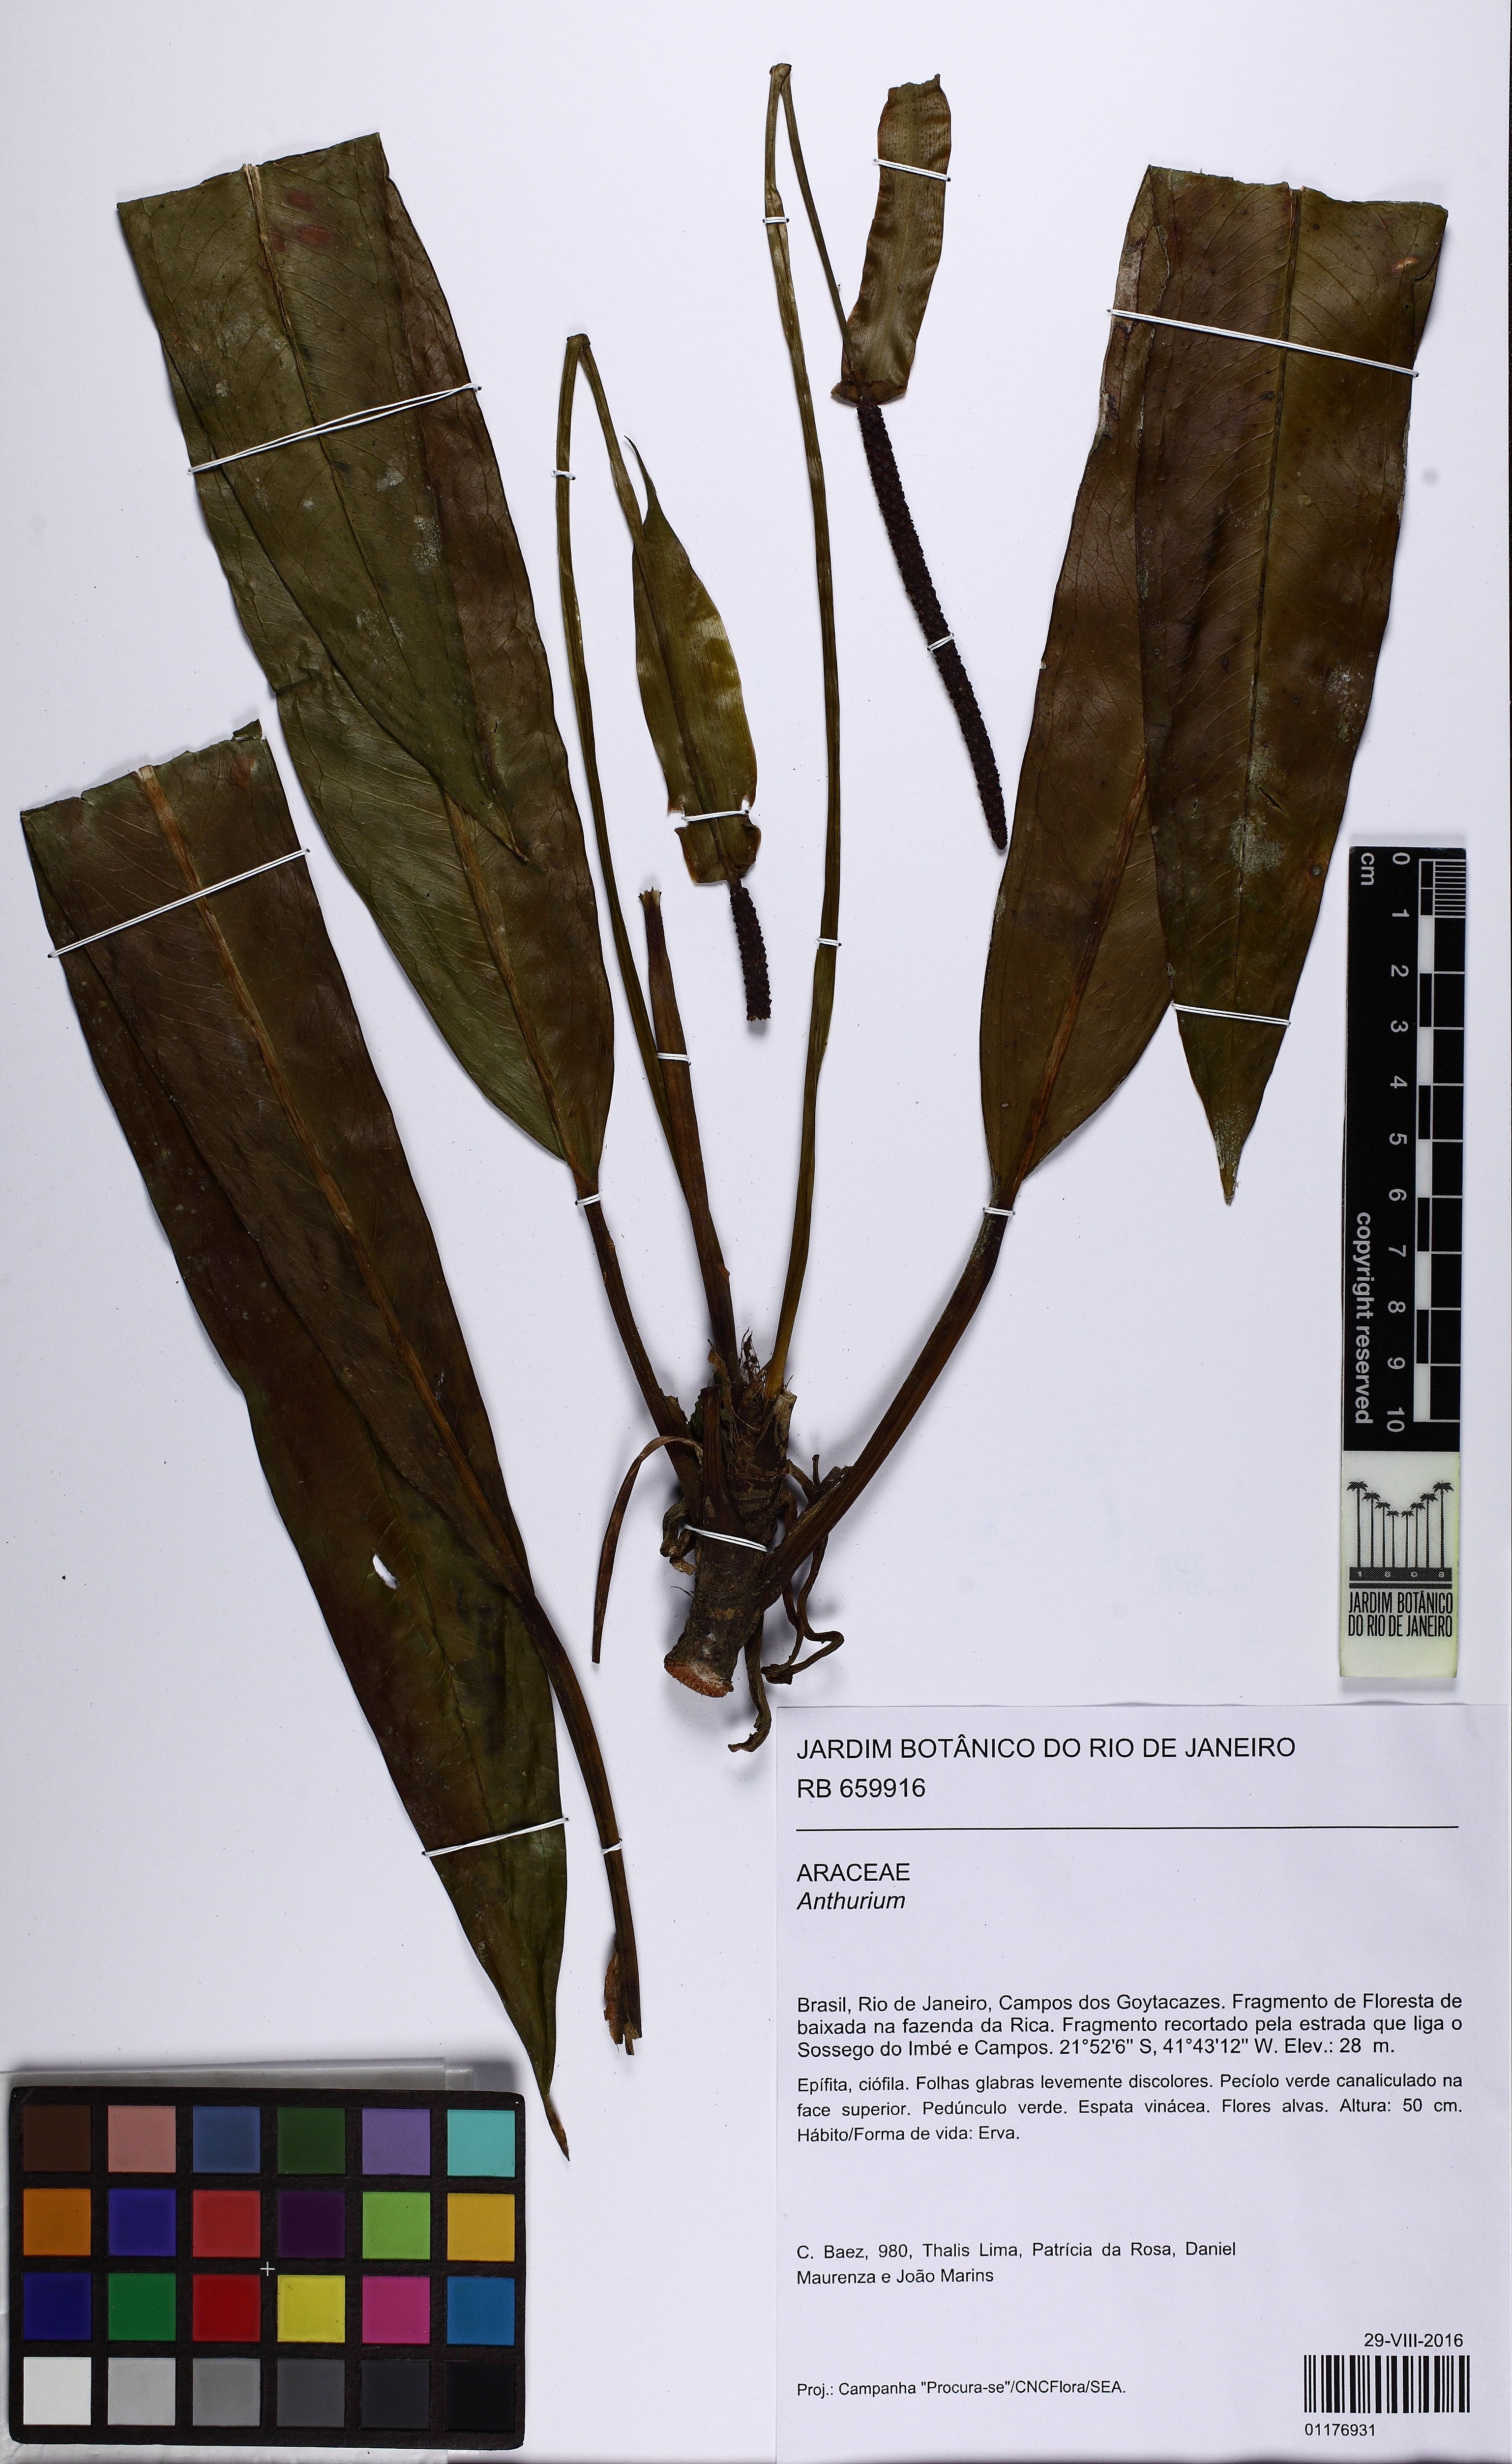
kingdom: Plantae
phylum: Tracheophyta
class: Liliopsida
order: Alismatales
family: Araceae
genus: Anthurium
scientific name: Anthurium
